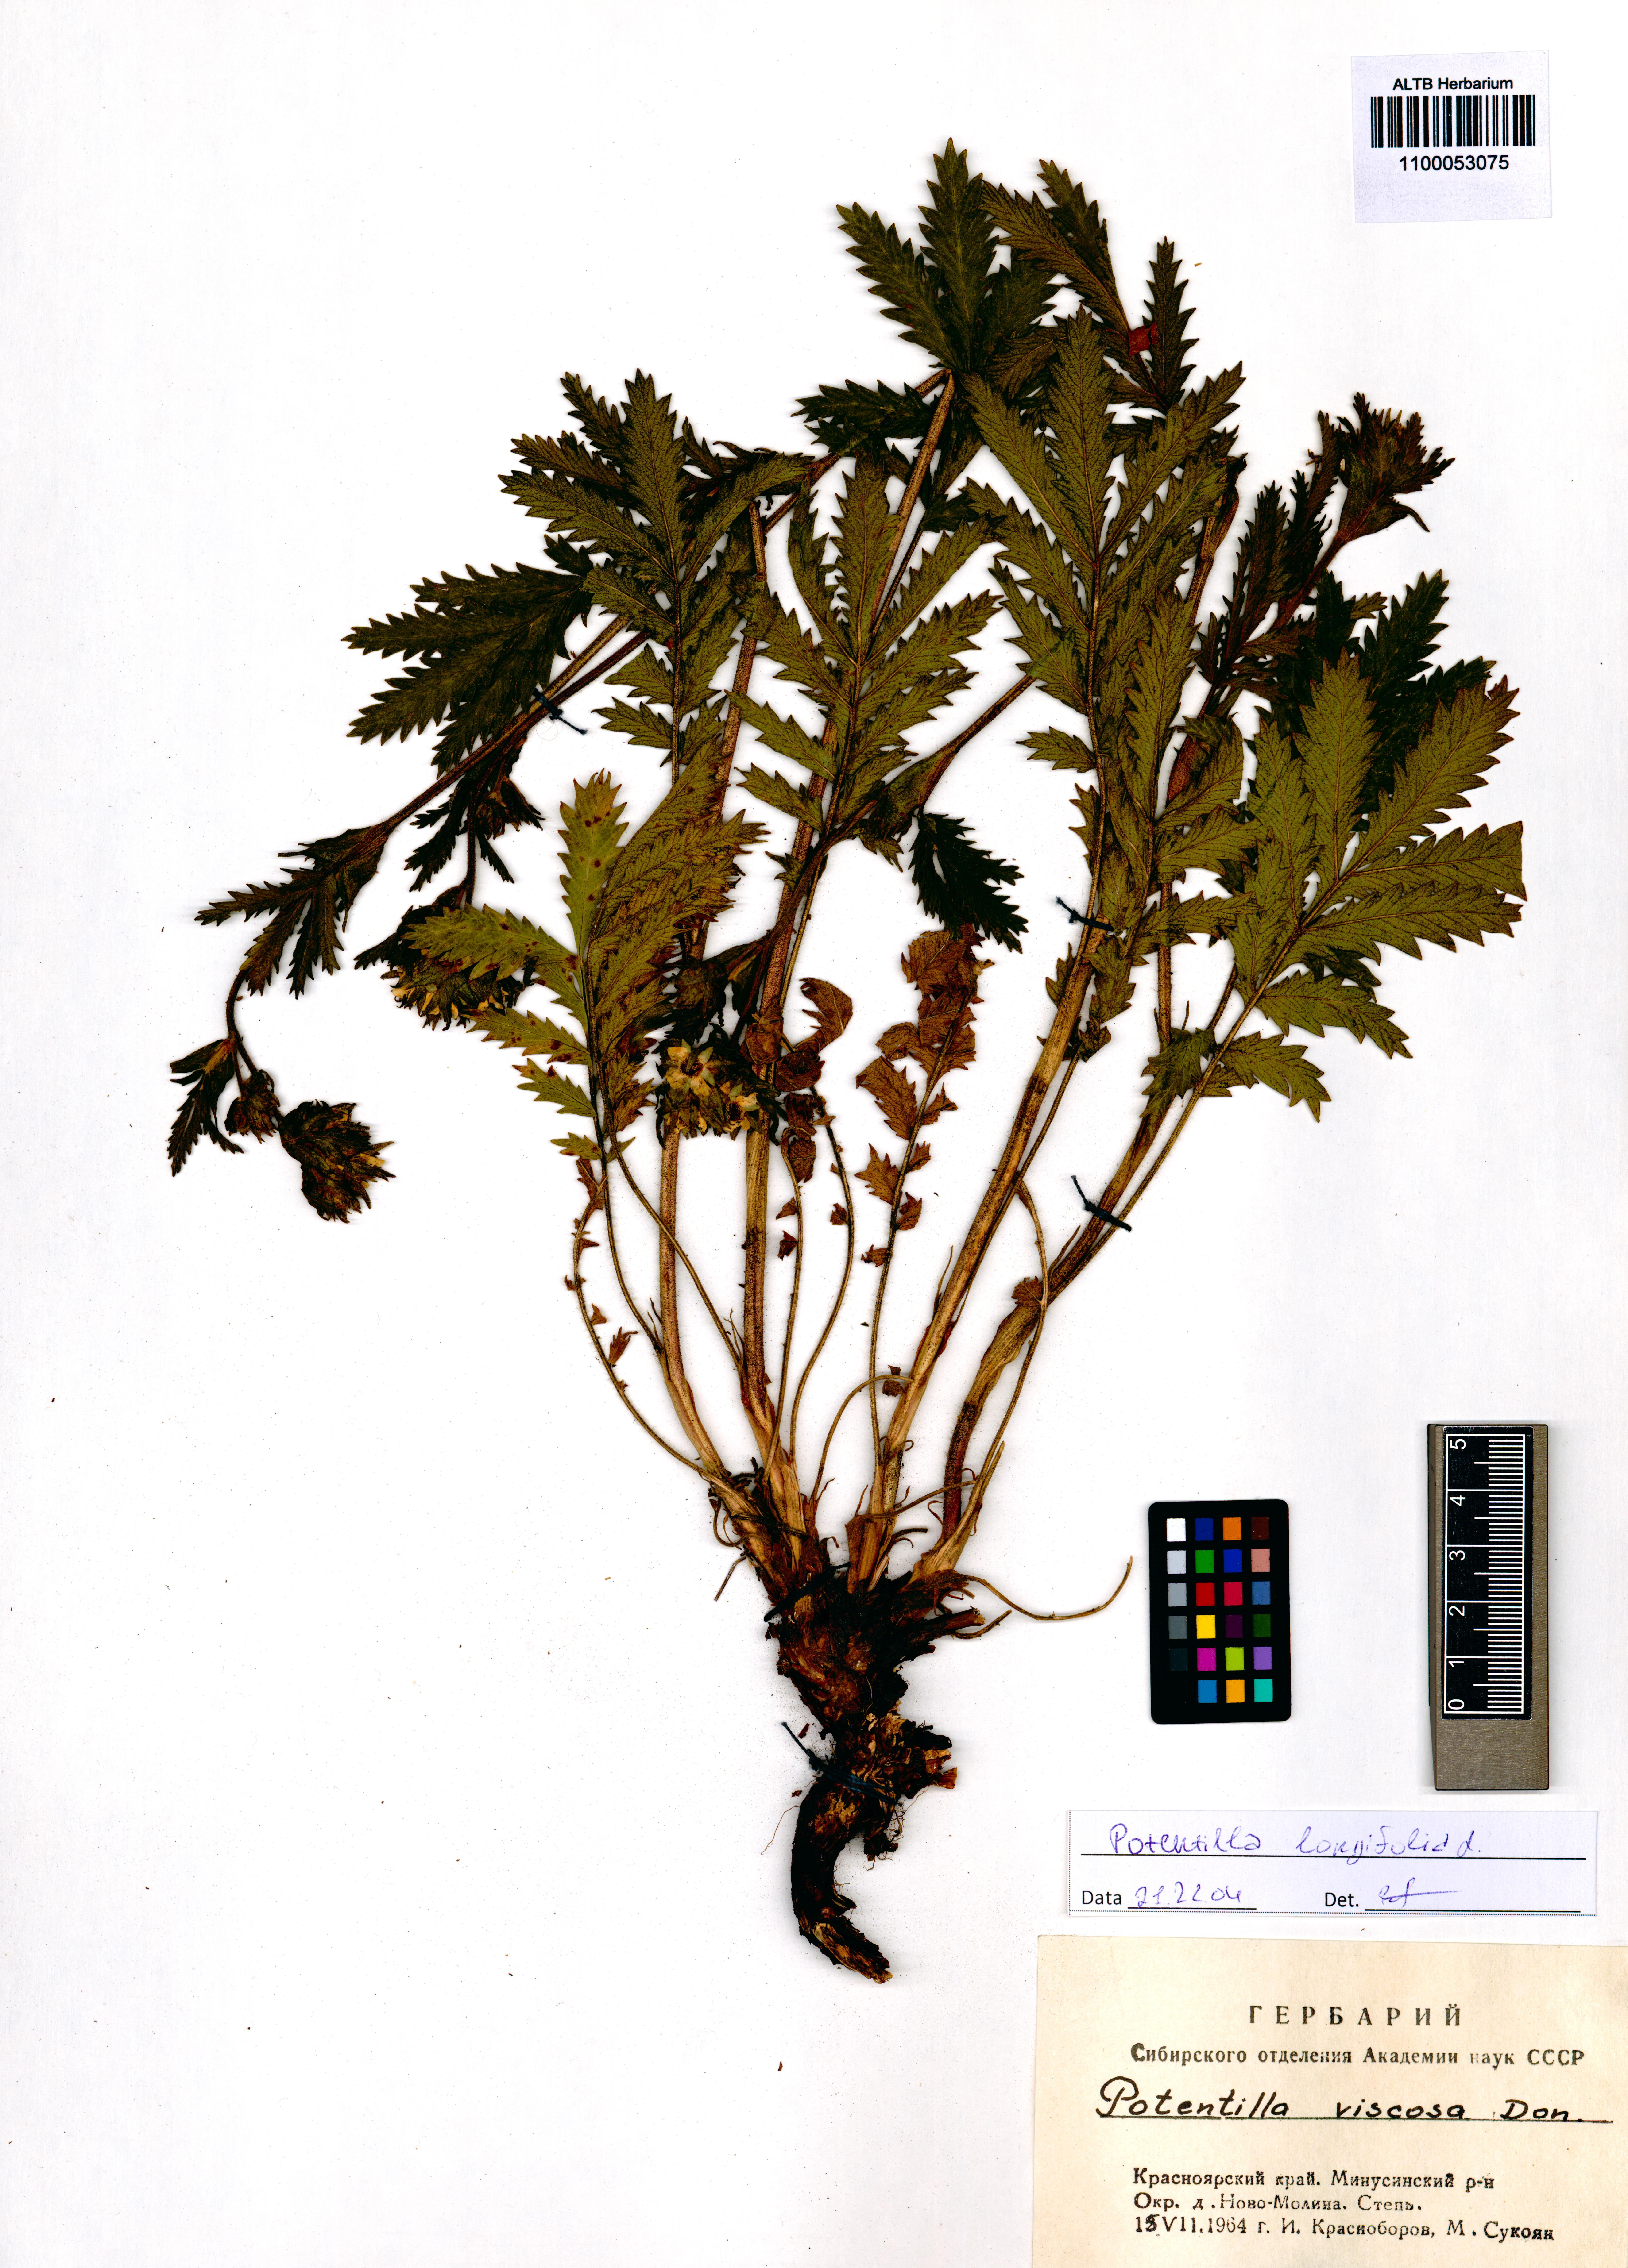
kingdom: Plantae
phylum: Tracheophyta
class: Magnoliopsida
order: Rosales
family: Rosaceae
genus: Potentilla
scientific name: Potentilla longifolia
